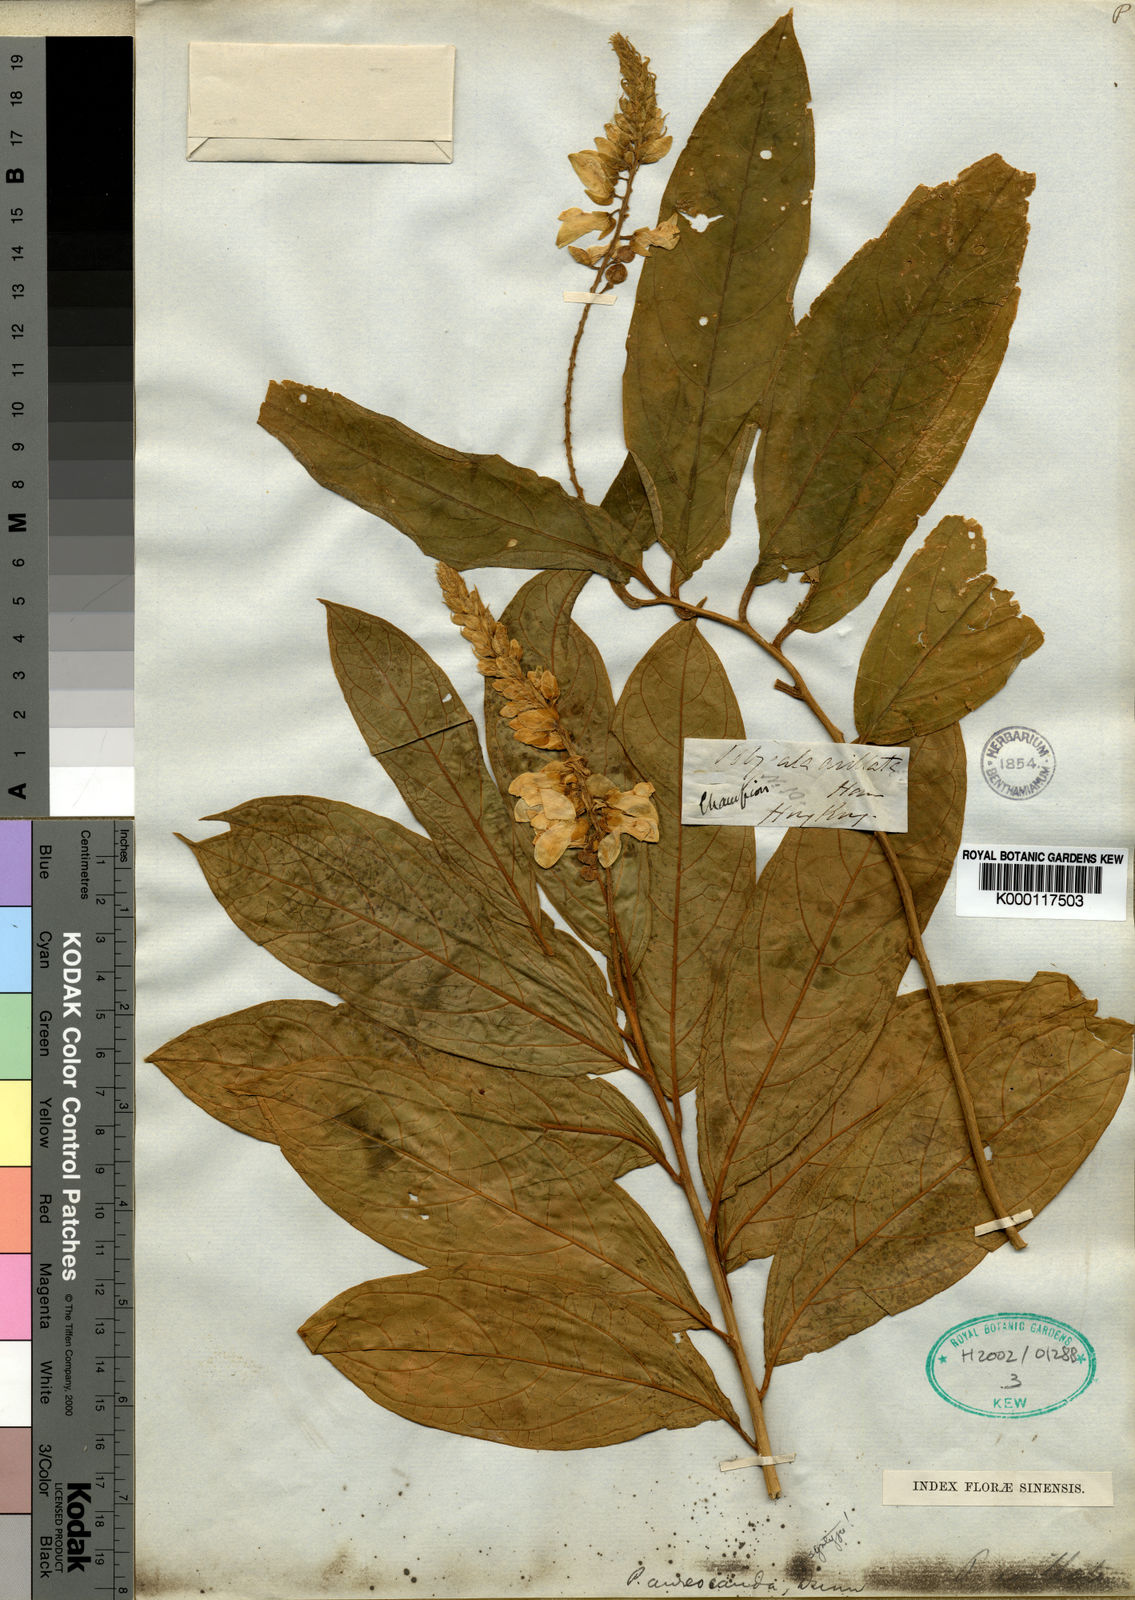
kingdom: Plantae
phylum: Tracheophyta
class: Magnoliopsida
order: Fabales
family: Polygalaceae
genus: Polygala
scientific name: Polygala forbesii
